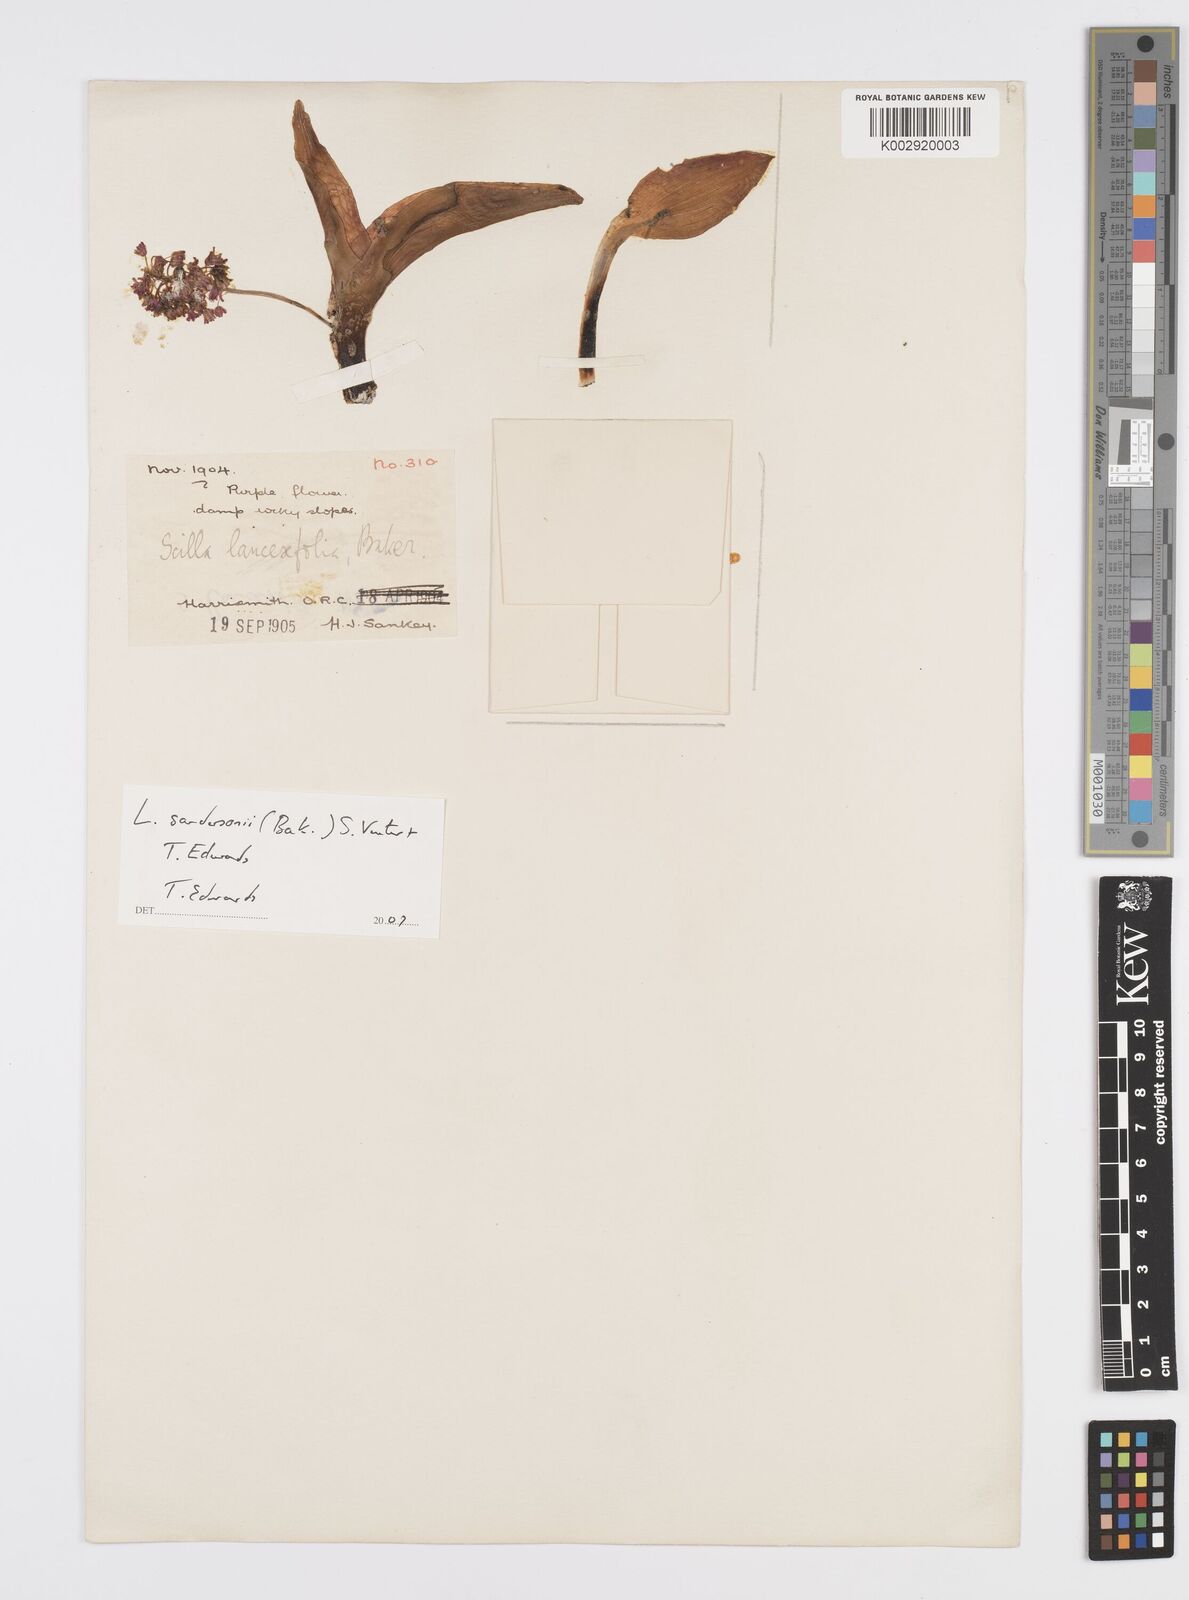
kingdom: Plantae
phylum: Tracheophyta
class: Liliopsida
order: Asparagales
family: Asparagaceae
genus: Ledebouria
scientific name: Ledebouria sandersonii
